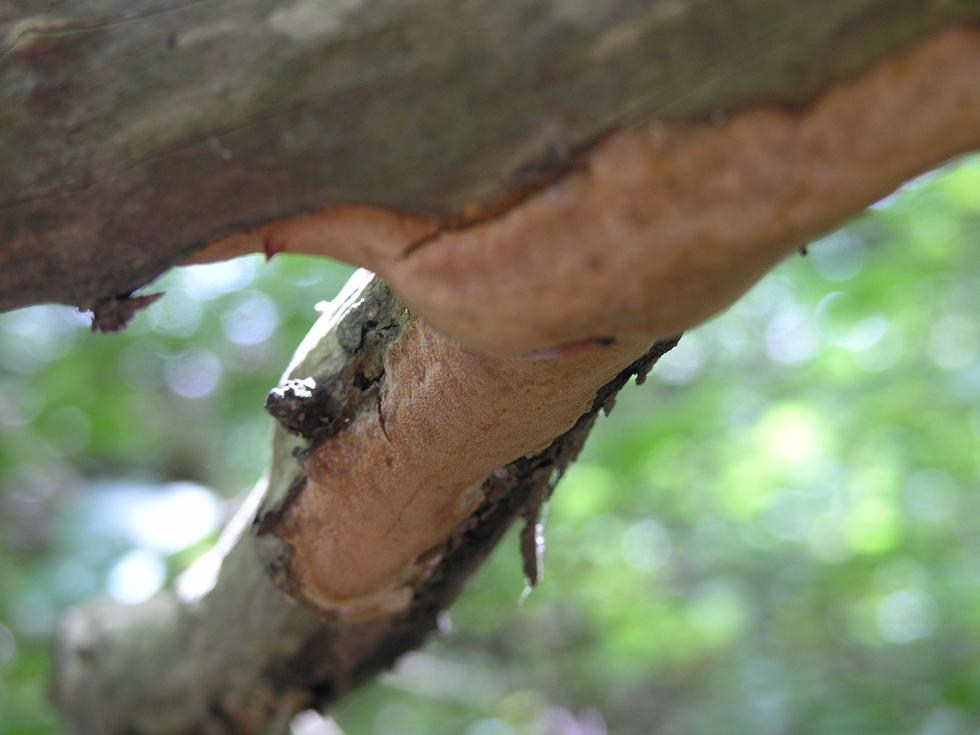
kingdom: Fungi
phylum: Basidiomycota
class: Agaricomycetes
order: Hymenochaetales
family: Hymenochaetaceae
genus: Fuscoporia
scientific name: Fuscoporia ferrea
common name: skorpe-ildporesvamp
